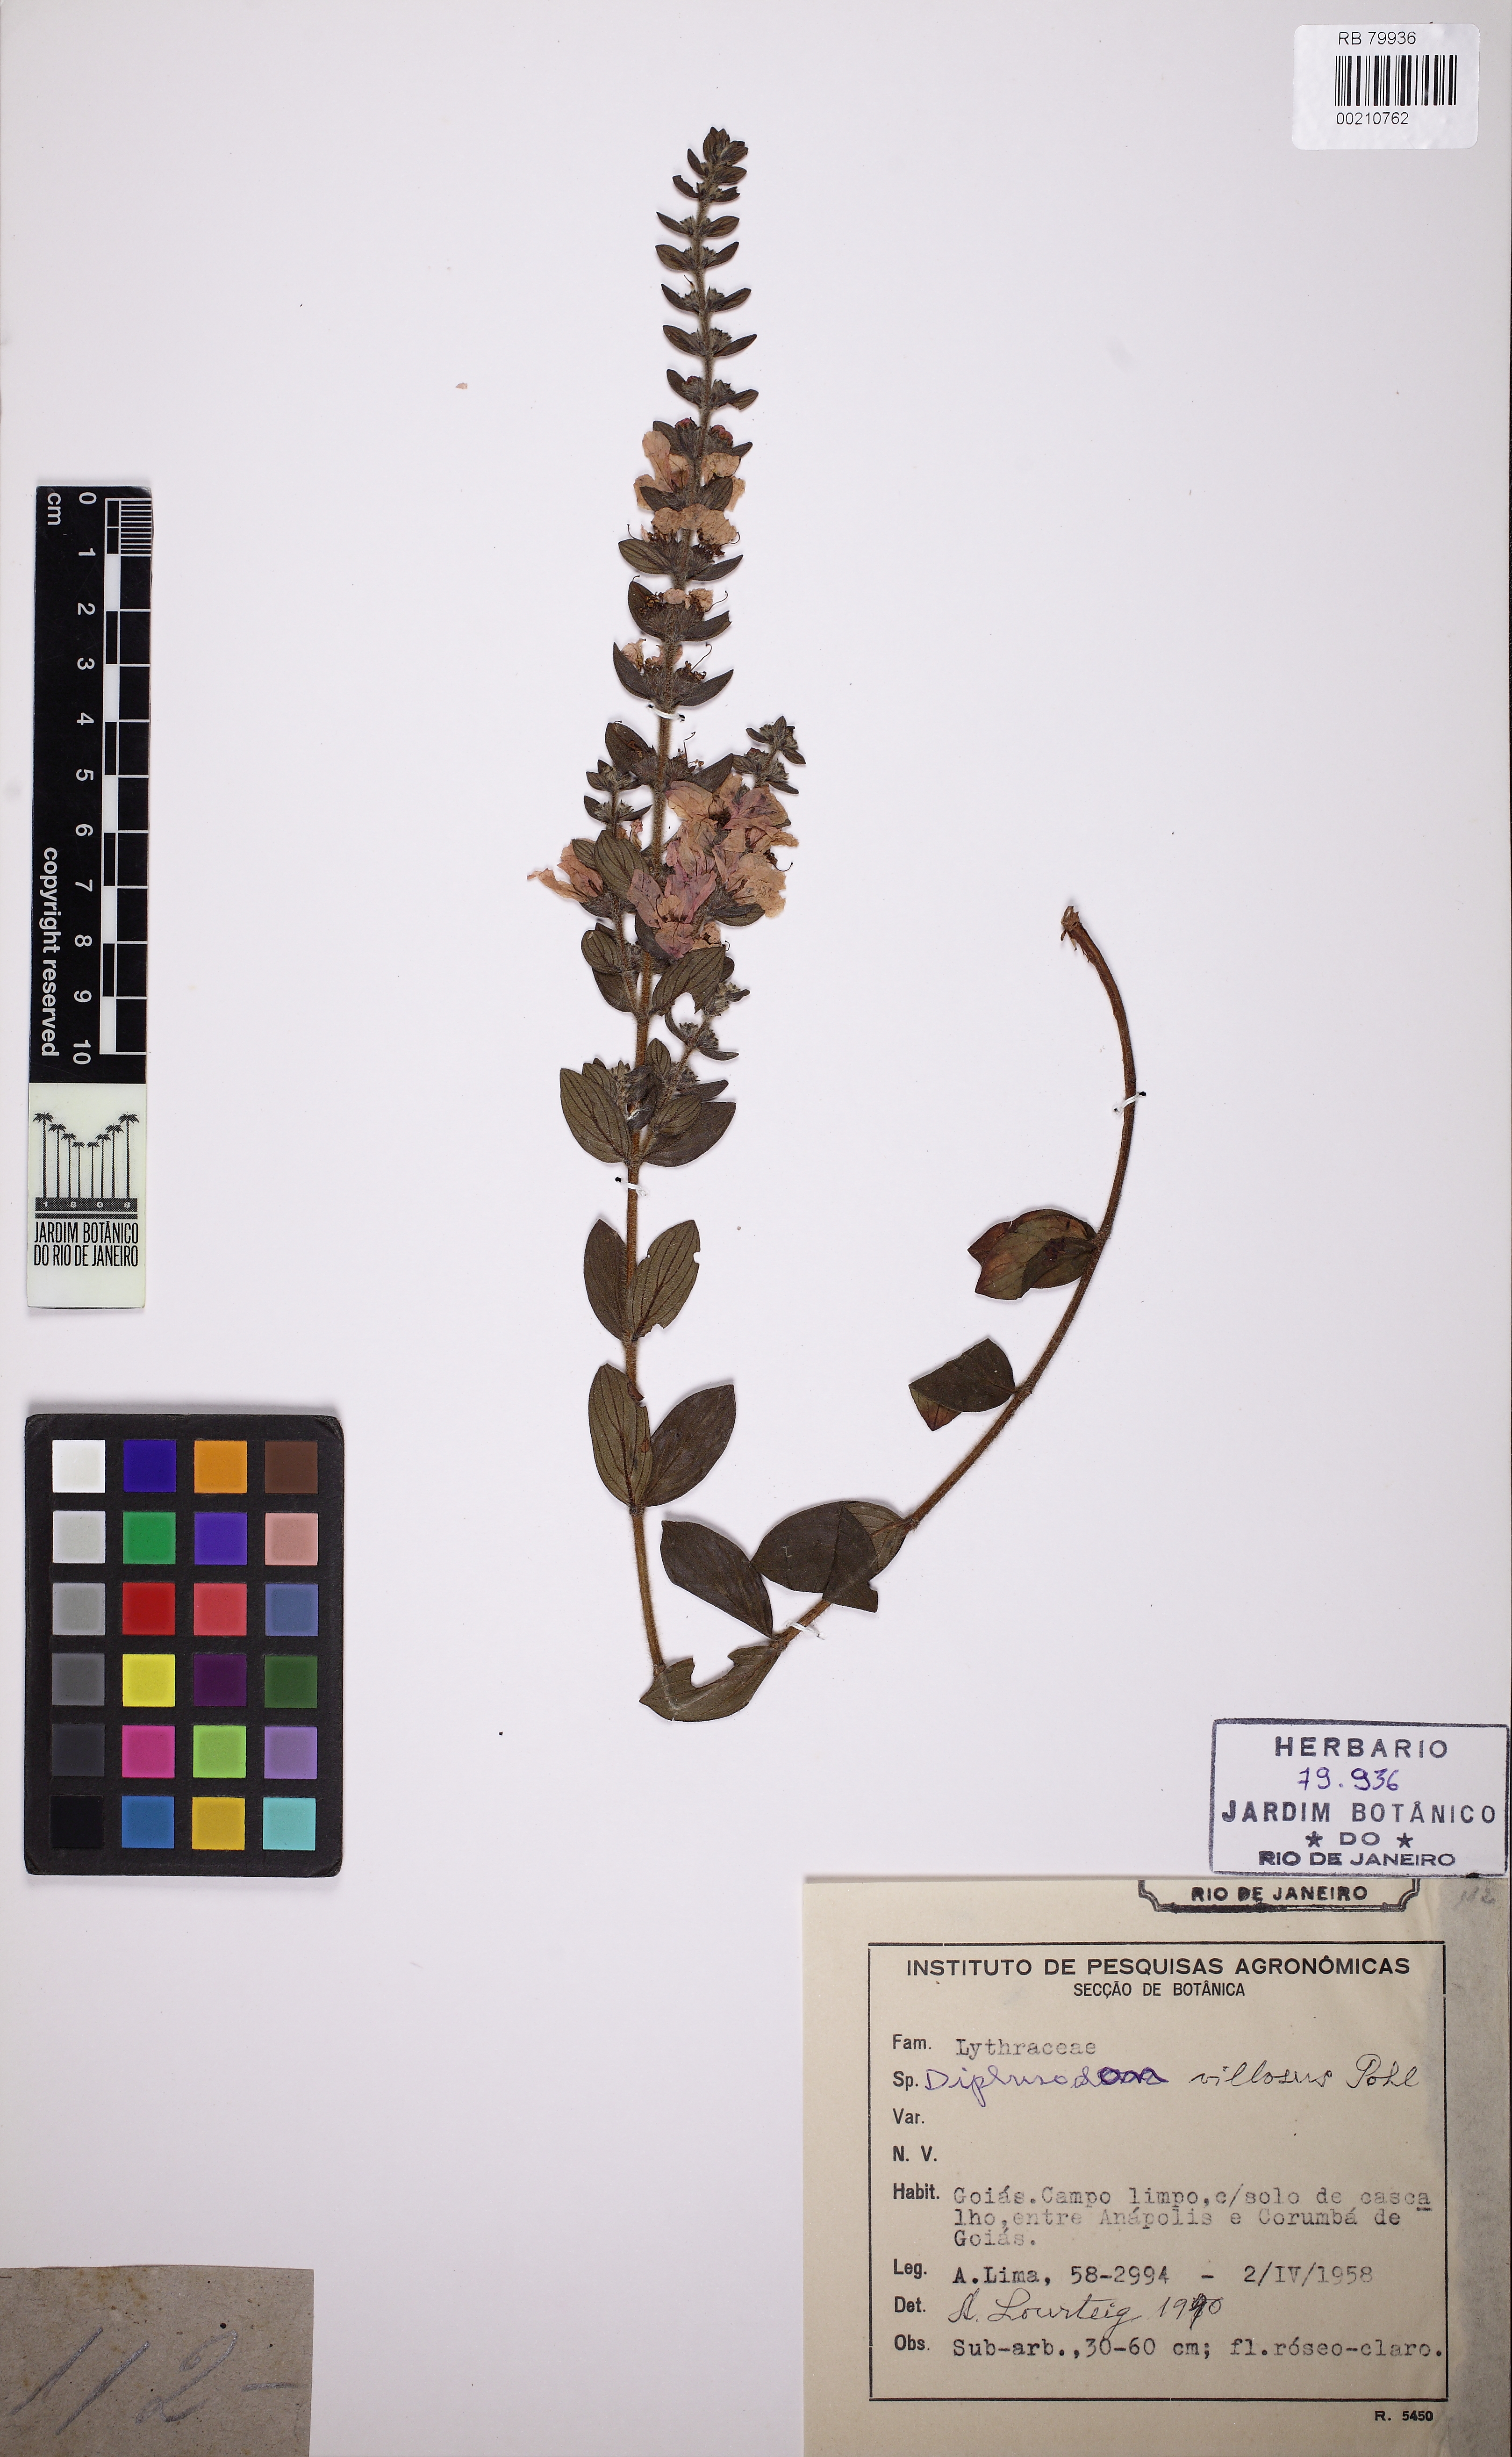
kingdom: Plantae
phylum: Tracheophyta
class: Magnoliopsida
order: Myrtales
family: Lythraceae
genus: Diplusodon
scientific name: Diplusodon villosus
